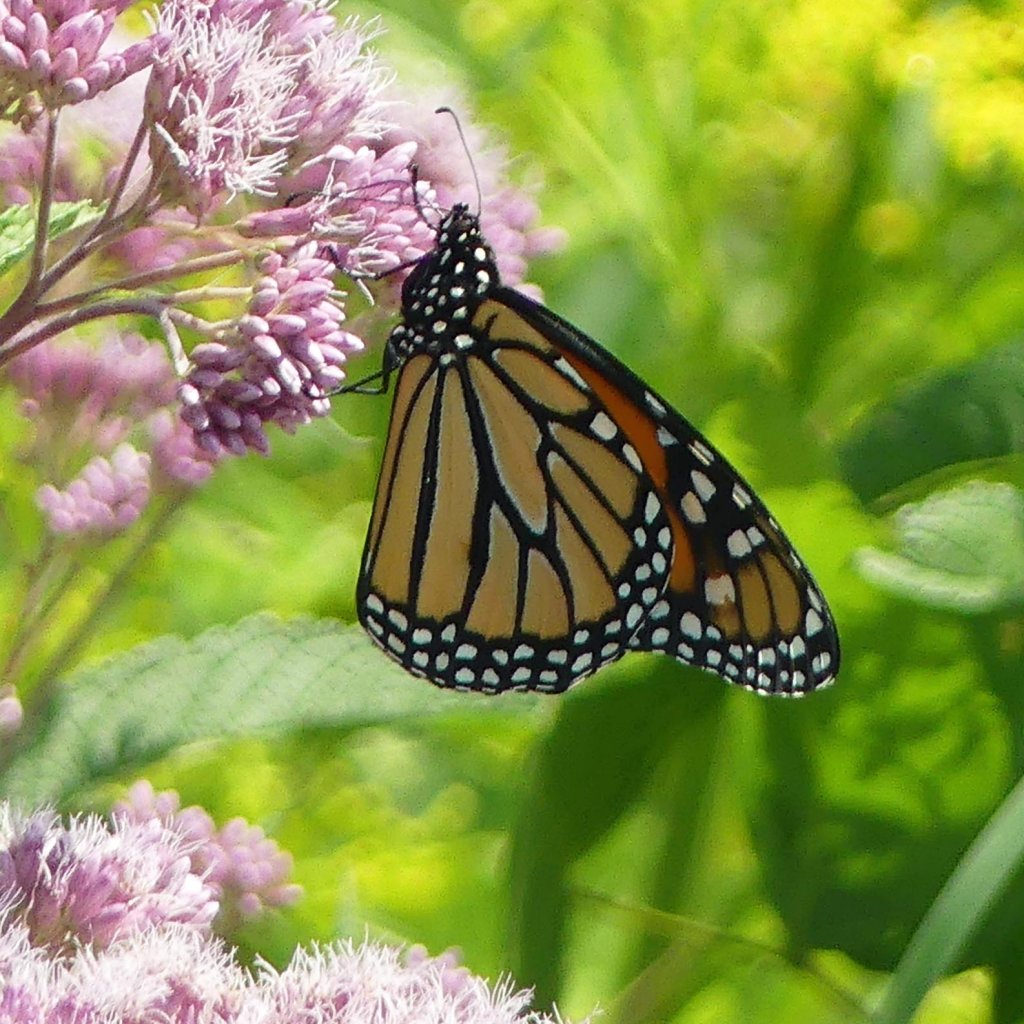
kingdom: Animalia
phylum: Arthropoda
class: Insecta
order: Lepidoptera
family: Nymphalidae
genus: Danaus
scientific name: Danaus plexippus
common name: Monarch
